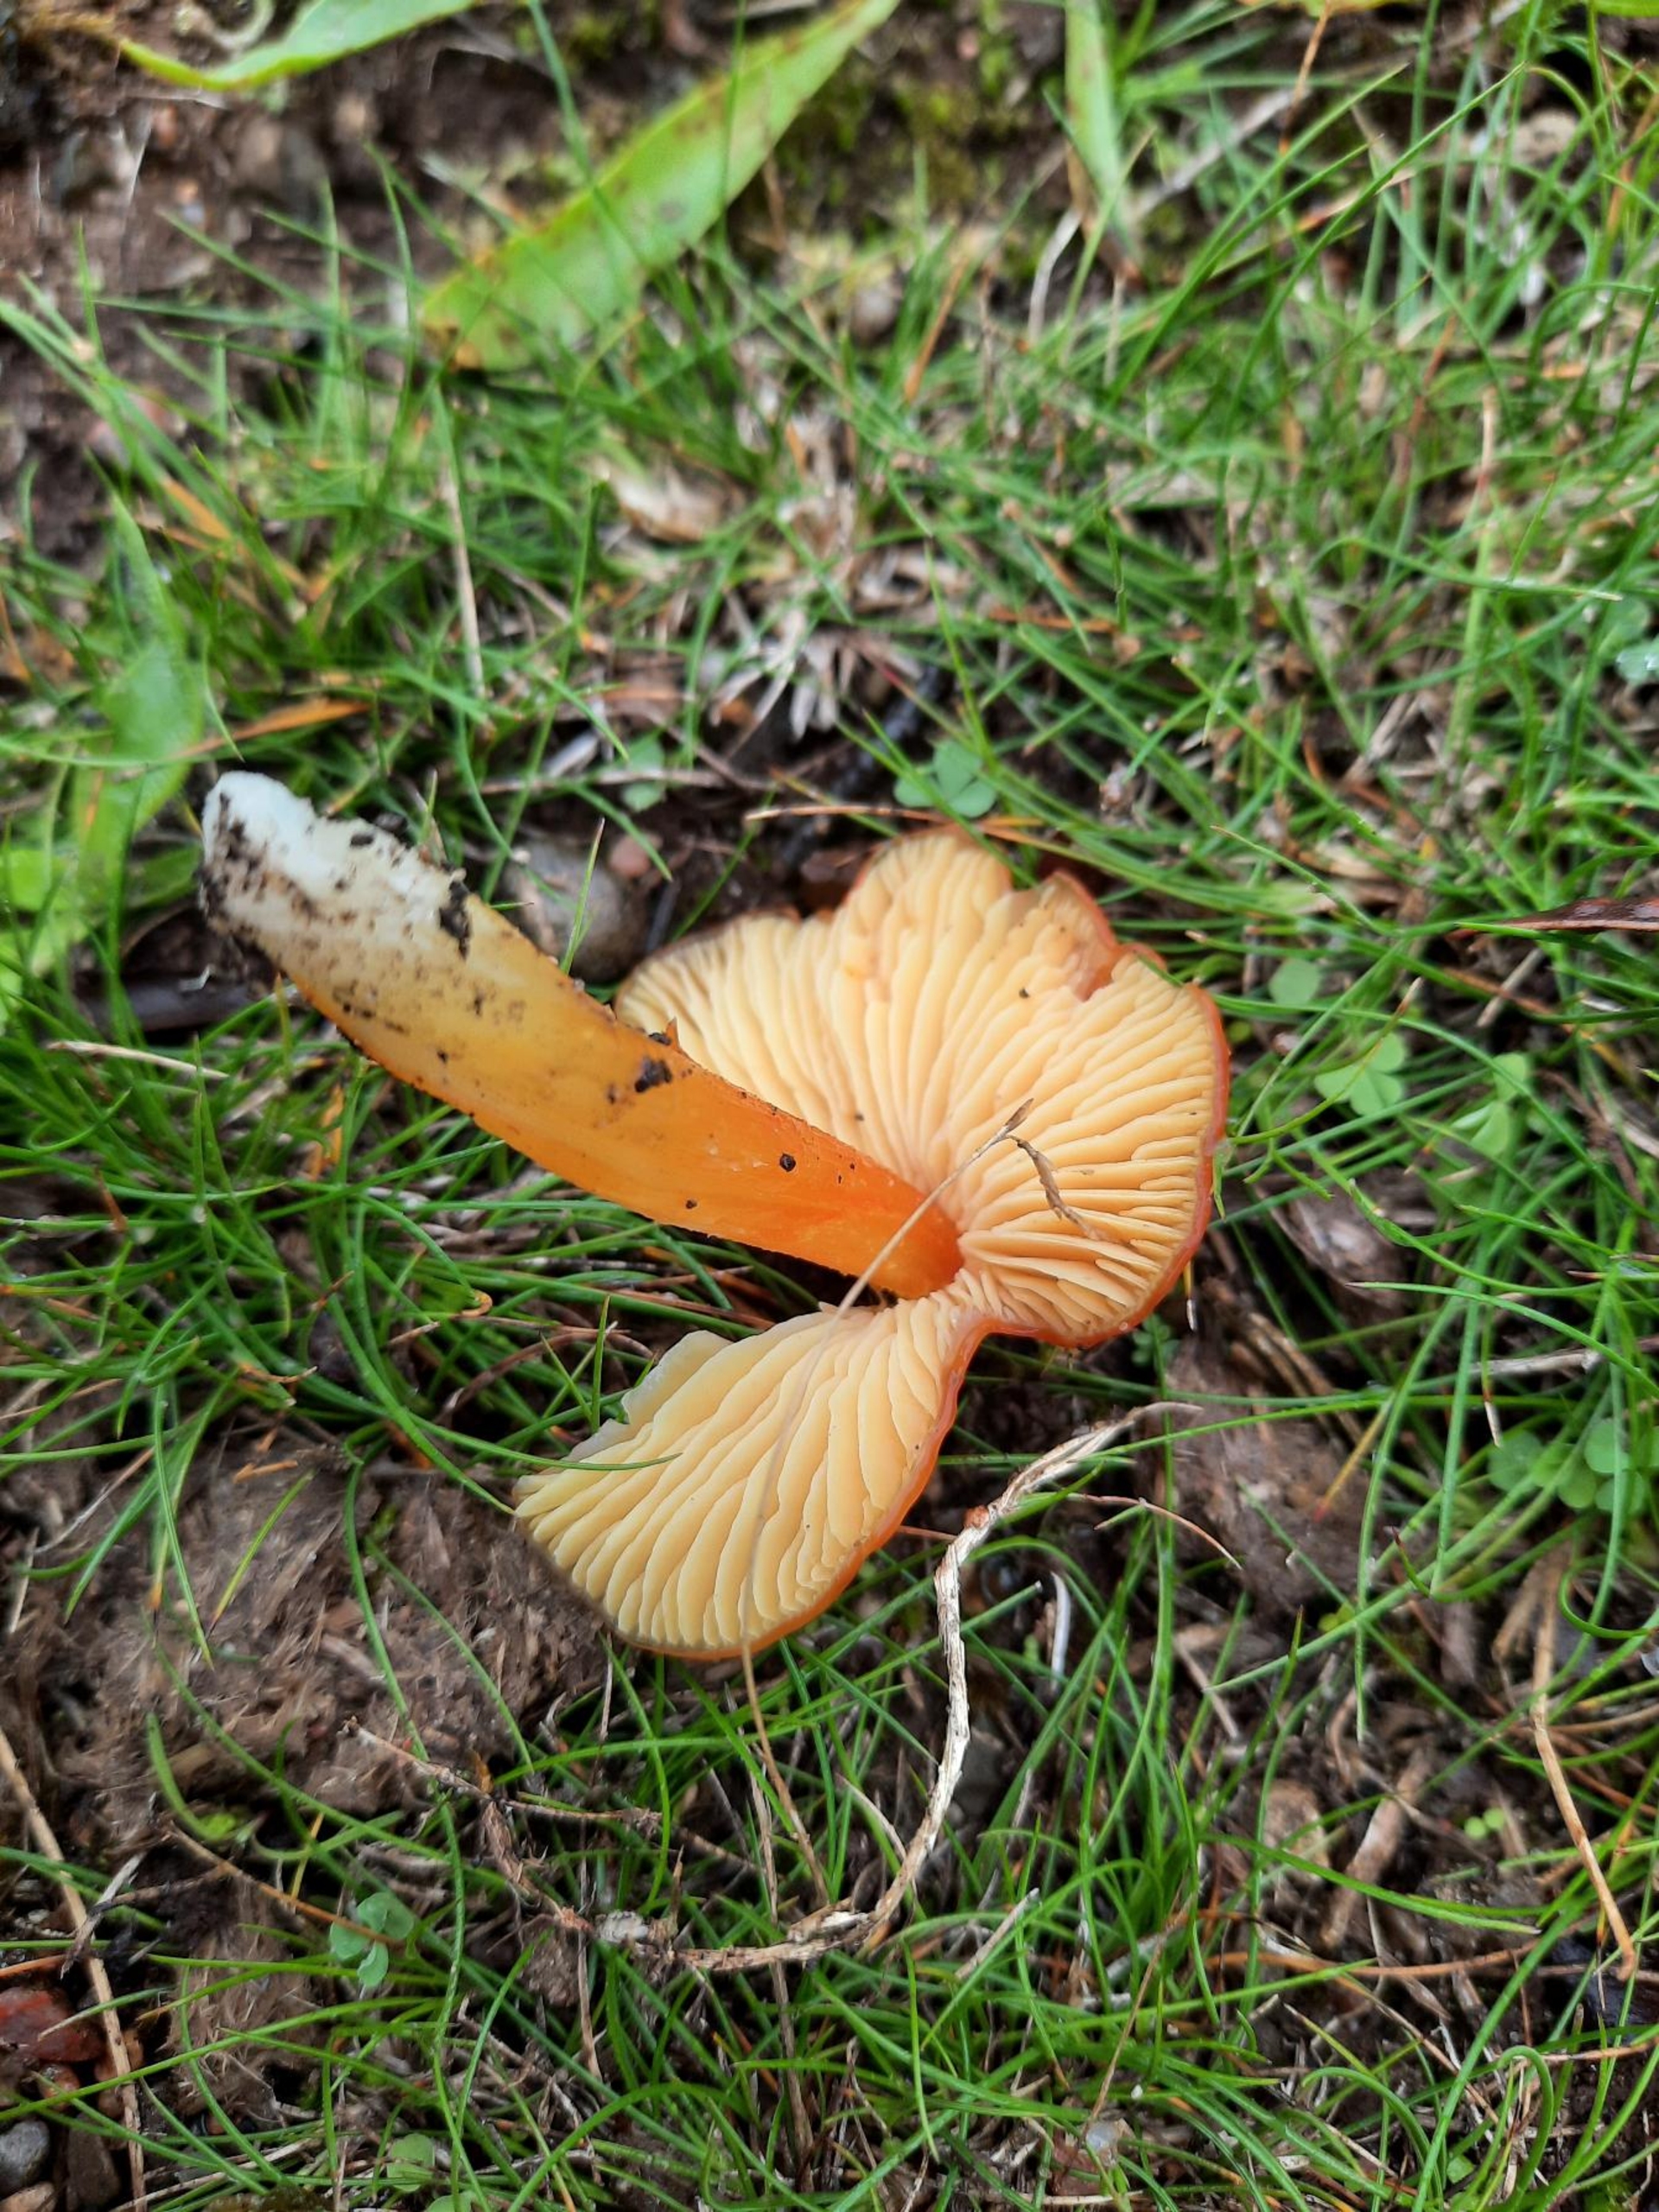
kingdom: Fungi
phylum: Basidiomycota
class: Agaricomycetes
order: Agaricales
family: Hygrophoraceae
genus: Hygrocybe
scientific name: Hygrocybe acutoconica
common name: Konrads vokshat
